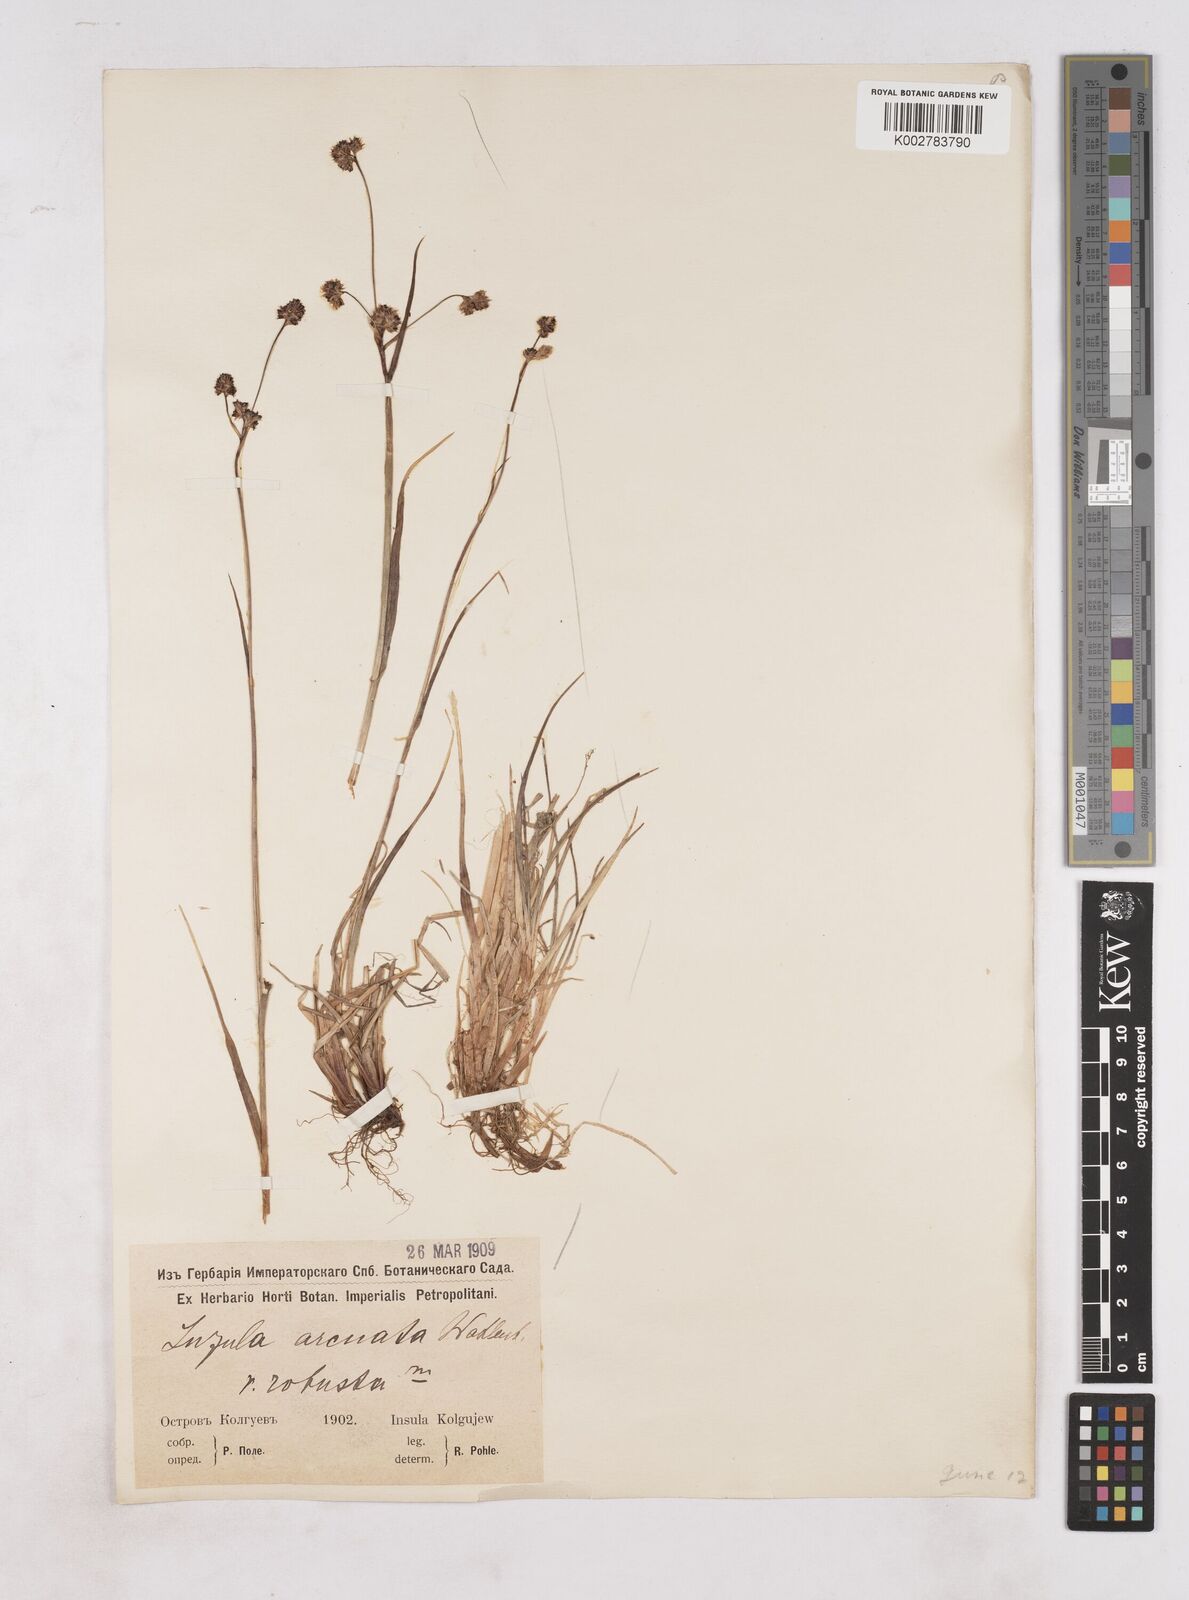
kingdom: Plantae
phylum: Tracheophyta
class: Liliopsida
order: Poales
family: Juncaceae
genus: Luzula
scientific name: Luzula nivalis
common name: Arctic woodrush
